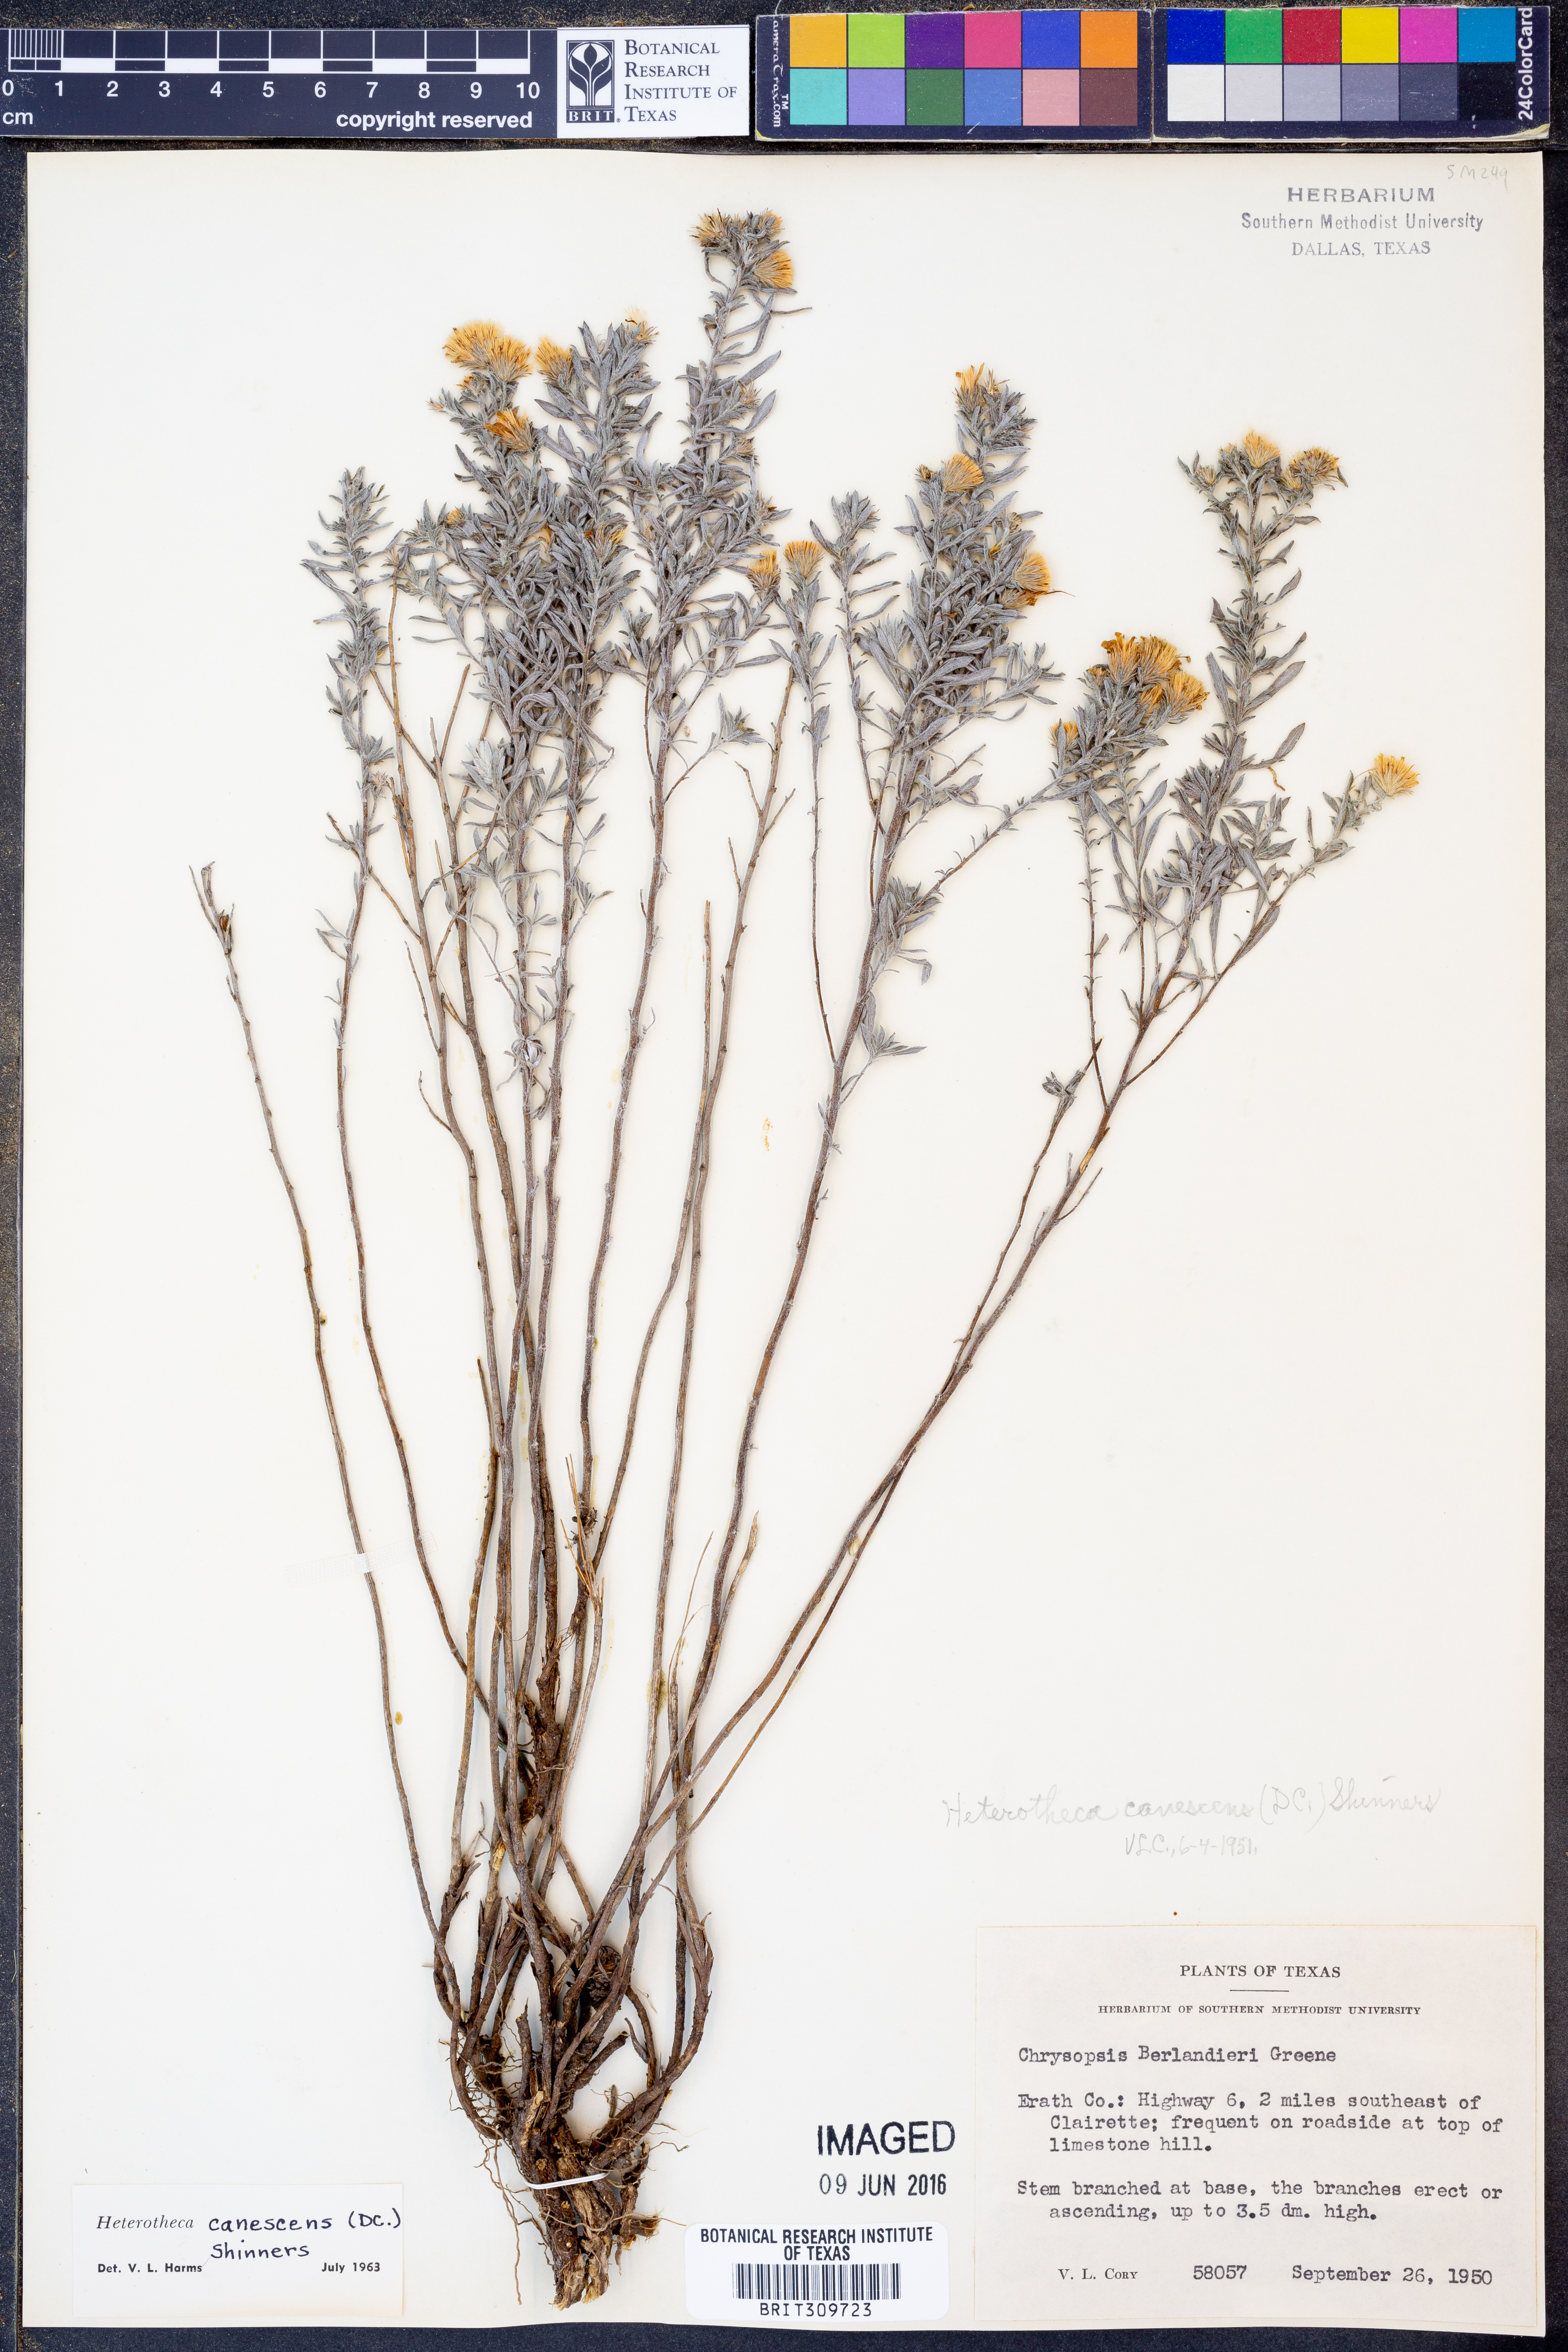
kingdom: Plantae
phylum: Tracheophyta
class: Magnoliopsida
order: Asterales
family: Asteraceae
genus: Heterotheca
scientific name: Heterotheca canescens
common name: Hoary golden-aster
